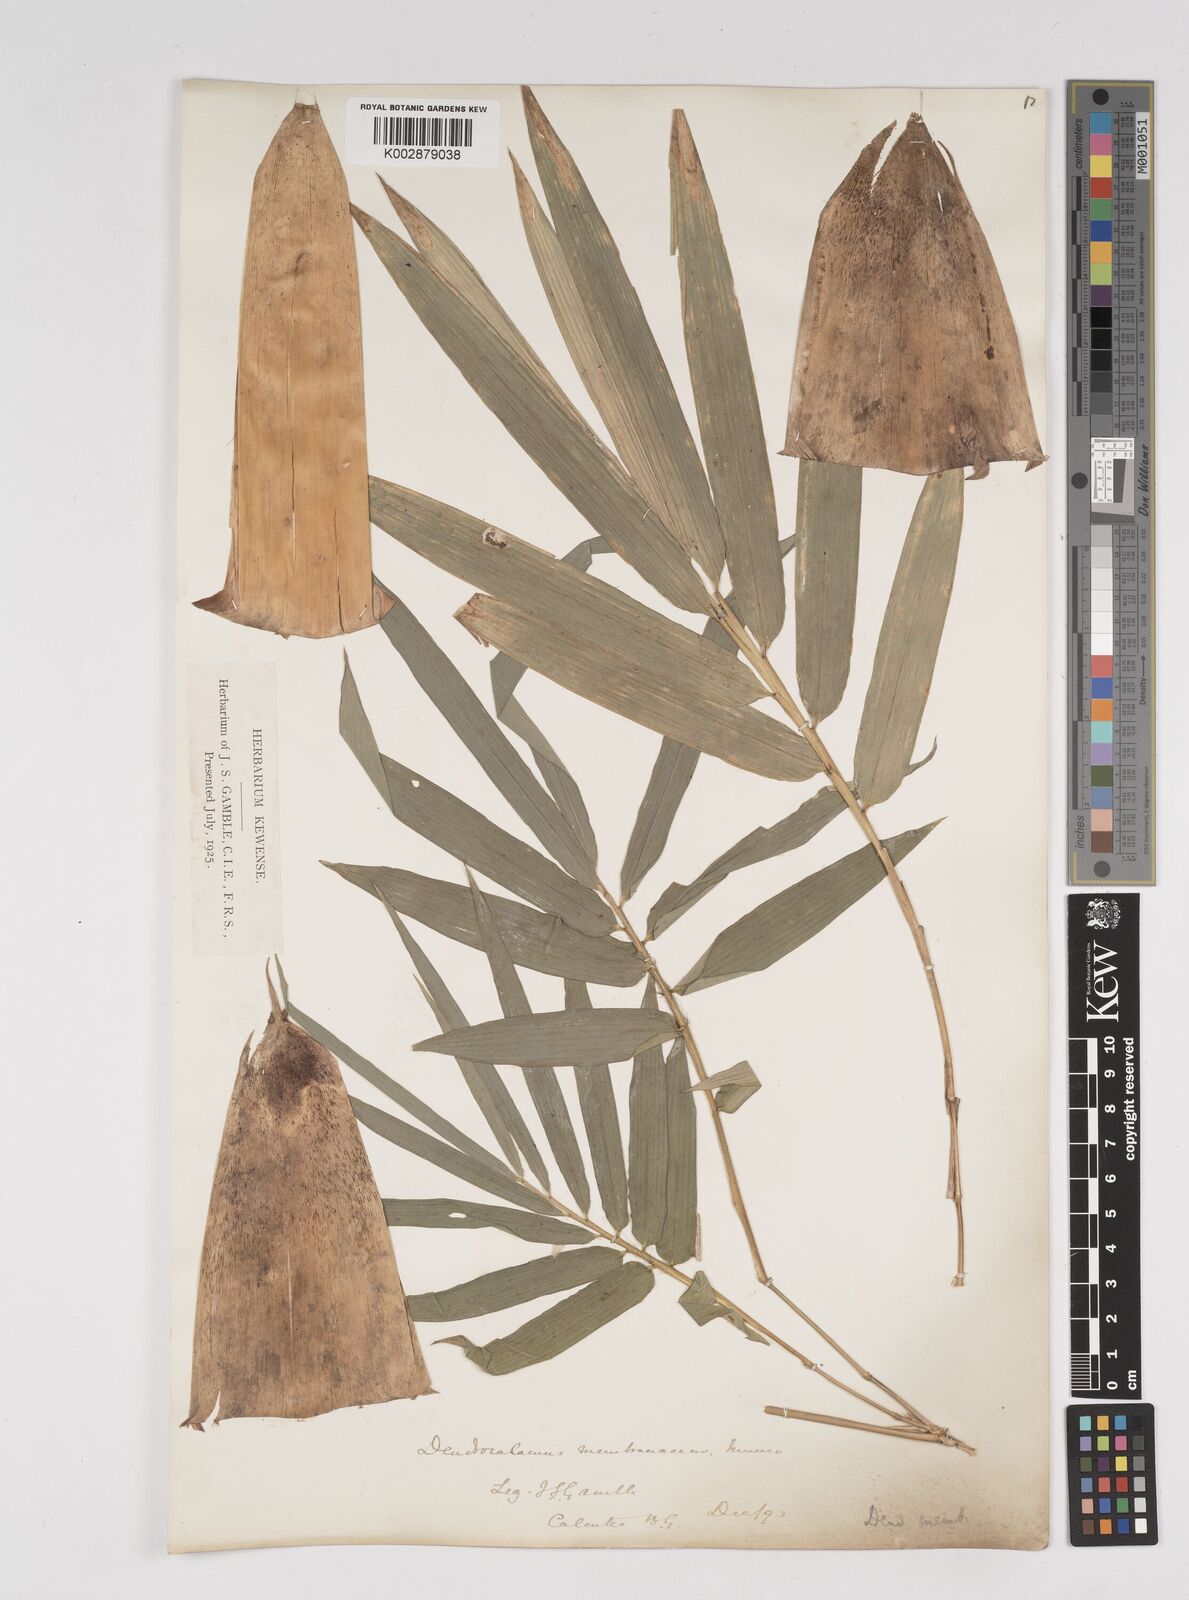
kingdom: Plantae
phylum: Tracheophyta
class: Liliopsida
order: Poales
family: Poaceae
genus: Dendrocalamus
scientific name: Dendrocalamus membranaceus
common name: White bamboo
